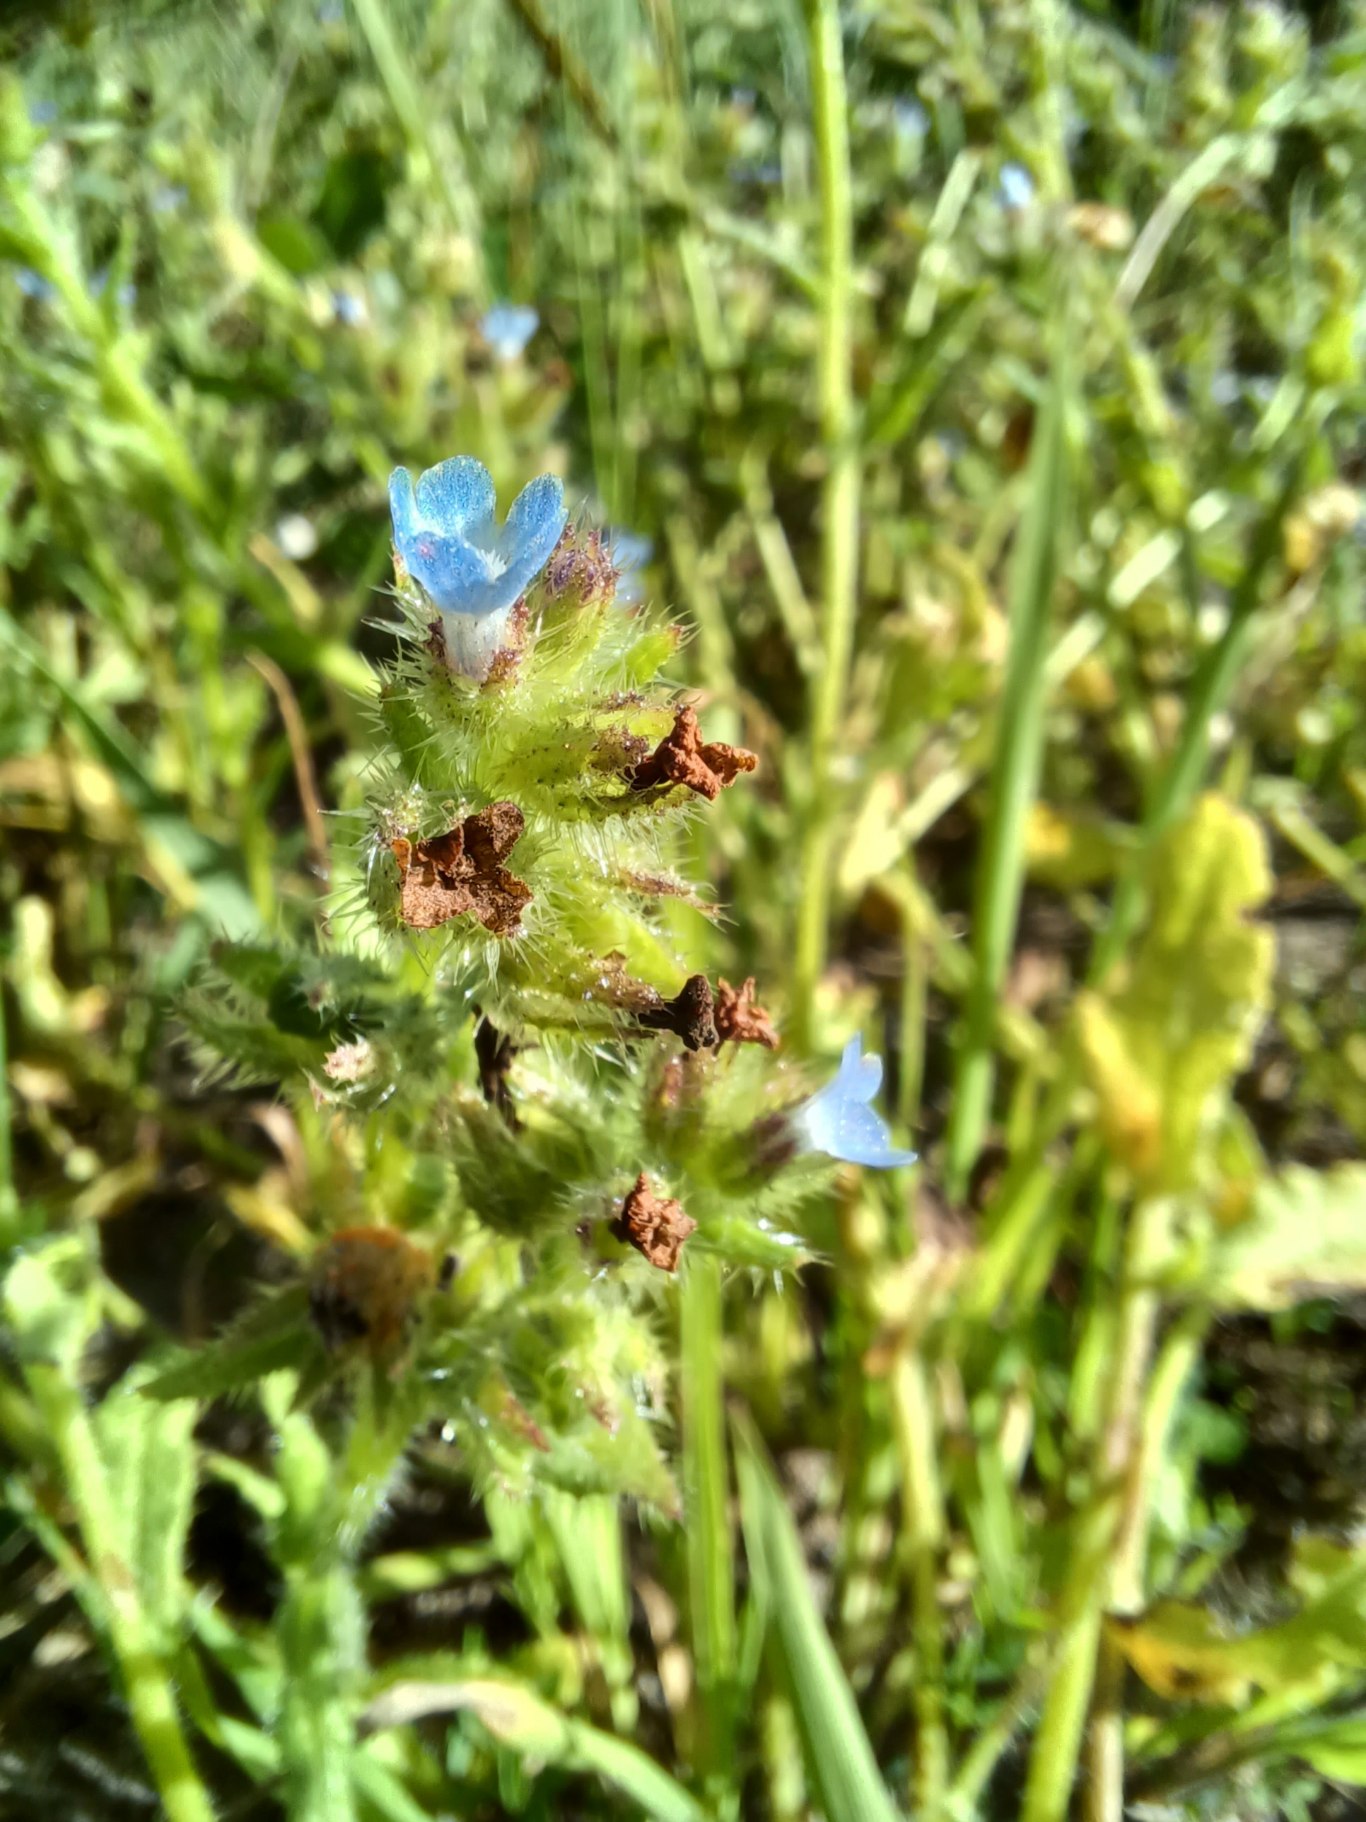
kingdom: Plantae
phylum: Tracheophyta
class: Magnoliopsida
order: Boraginales
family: Boraginaceae
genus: Lycopsis
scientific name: Lycopsis arvensis
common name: Krumhals
